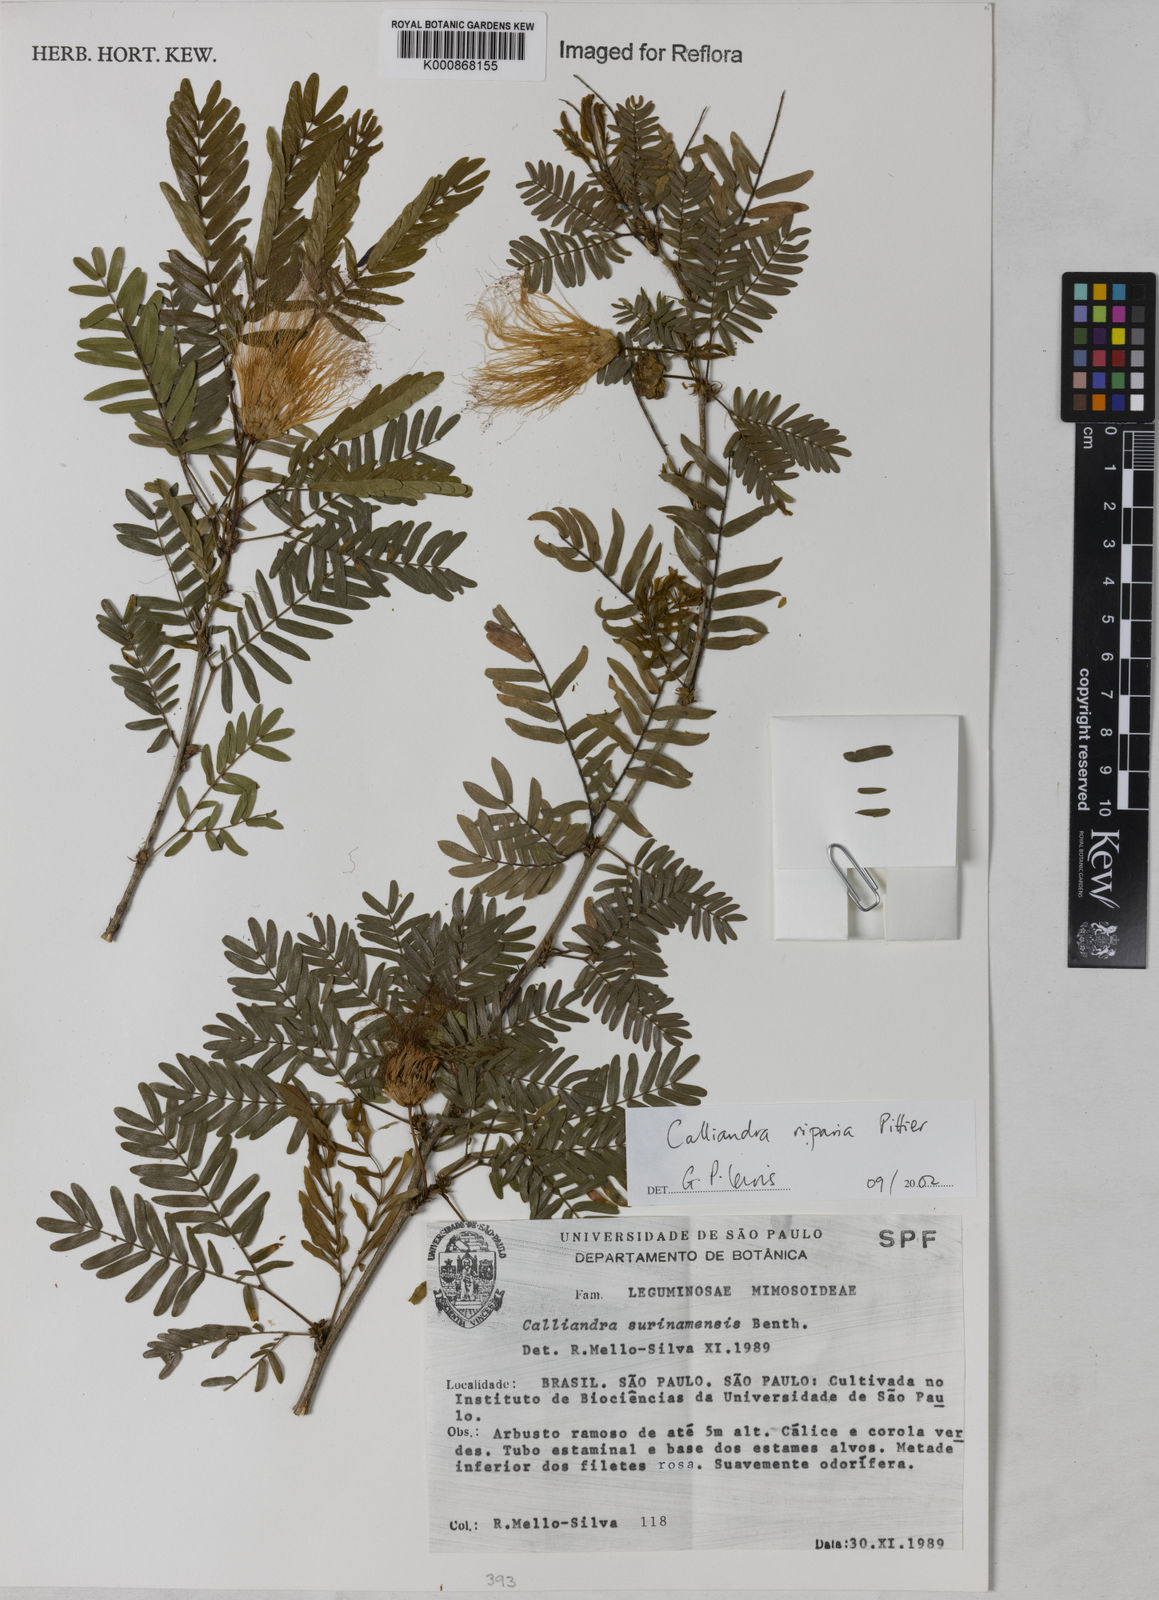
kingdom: Plantae
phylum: Tracheophyta
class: Magnoliopsida
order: Fabales
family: Fabaceae
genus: Calliandra
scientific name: Calliandra riparia
